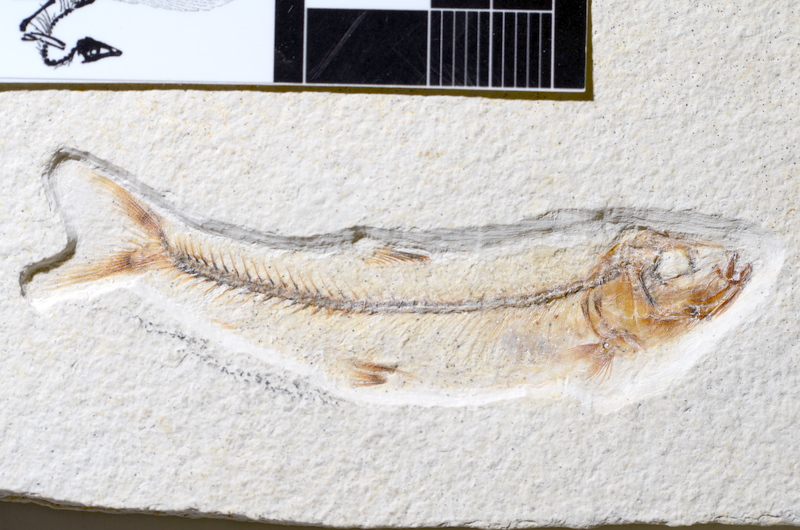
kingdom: Animalia
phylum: Chordata
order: Salmoniformes
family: Orthogonikleithridae
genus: Orthogonikleithrus
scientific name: Orthogonikleithrus hoelli
